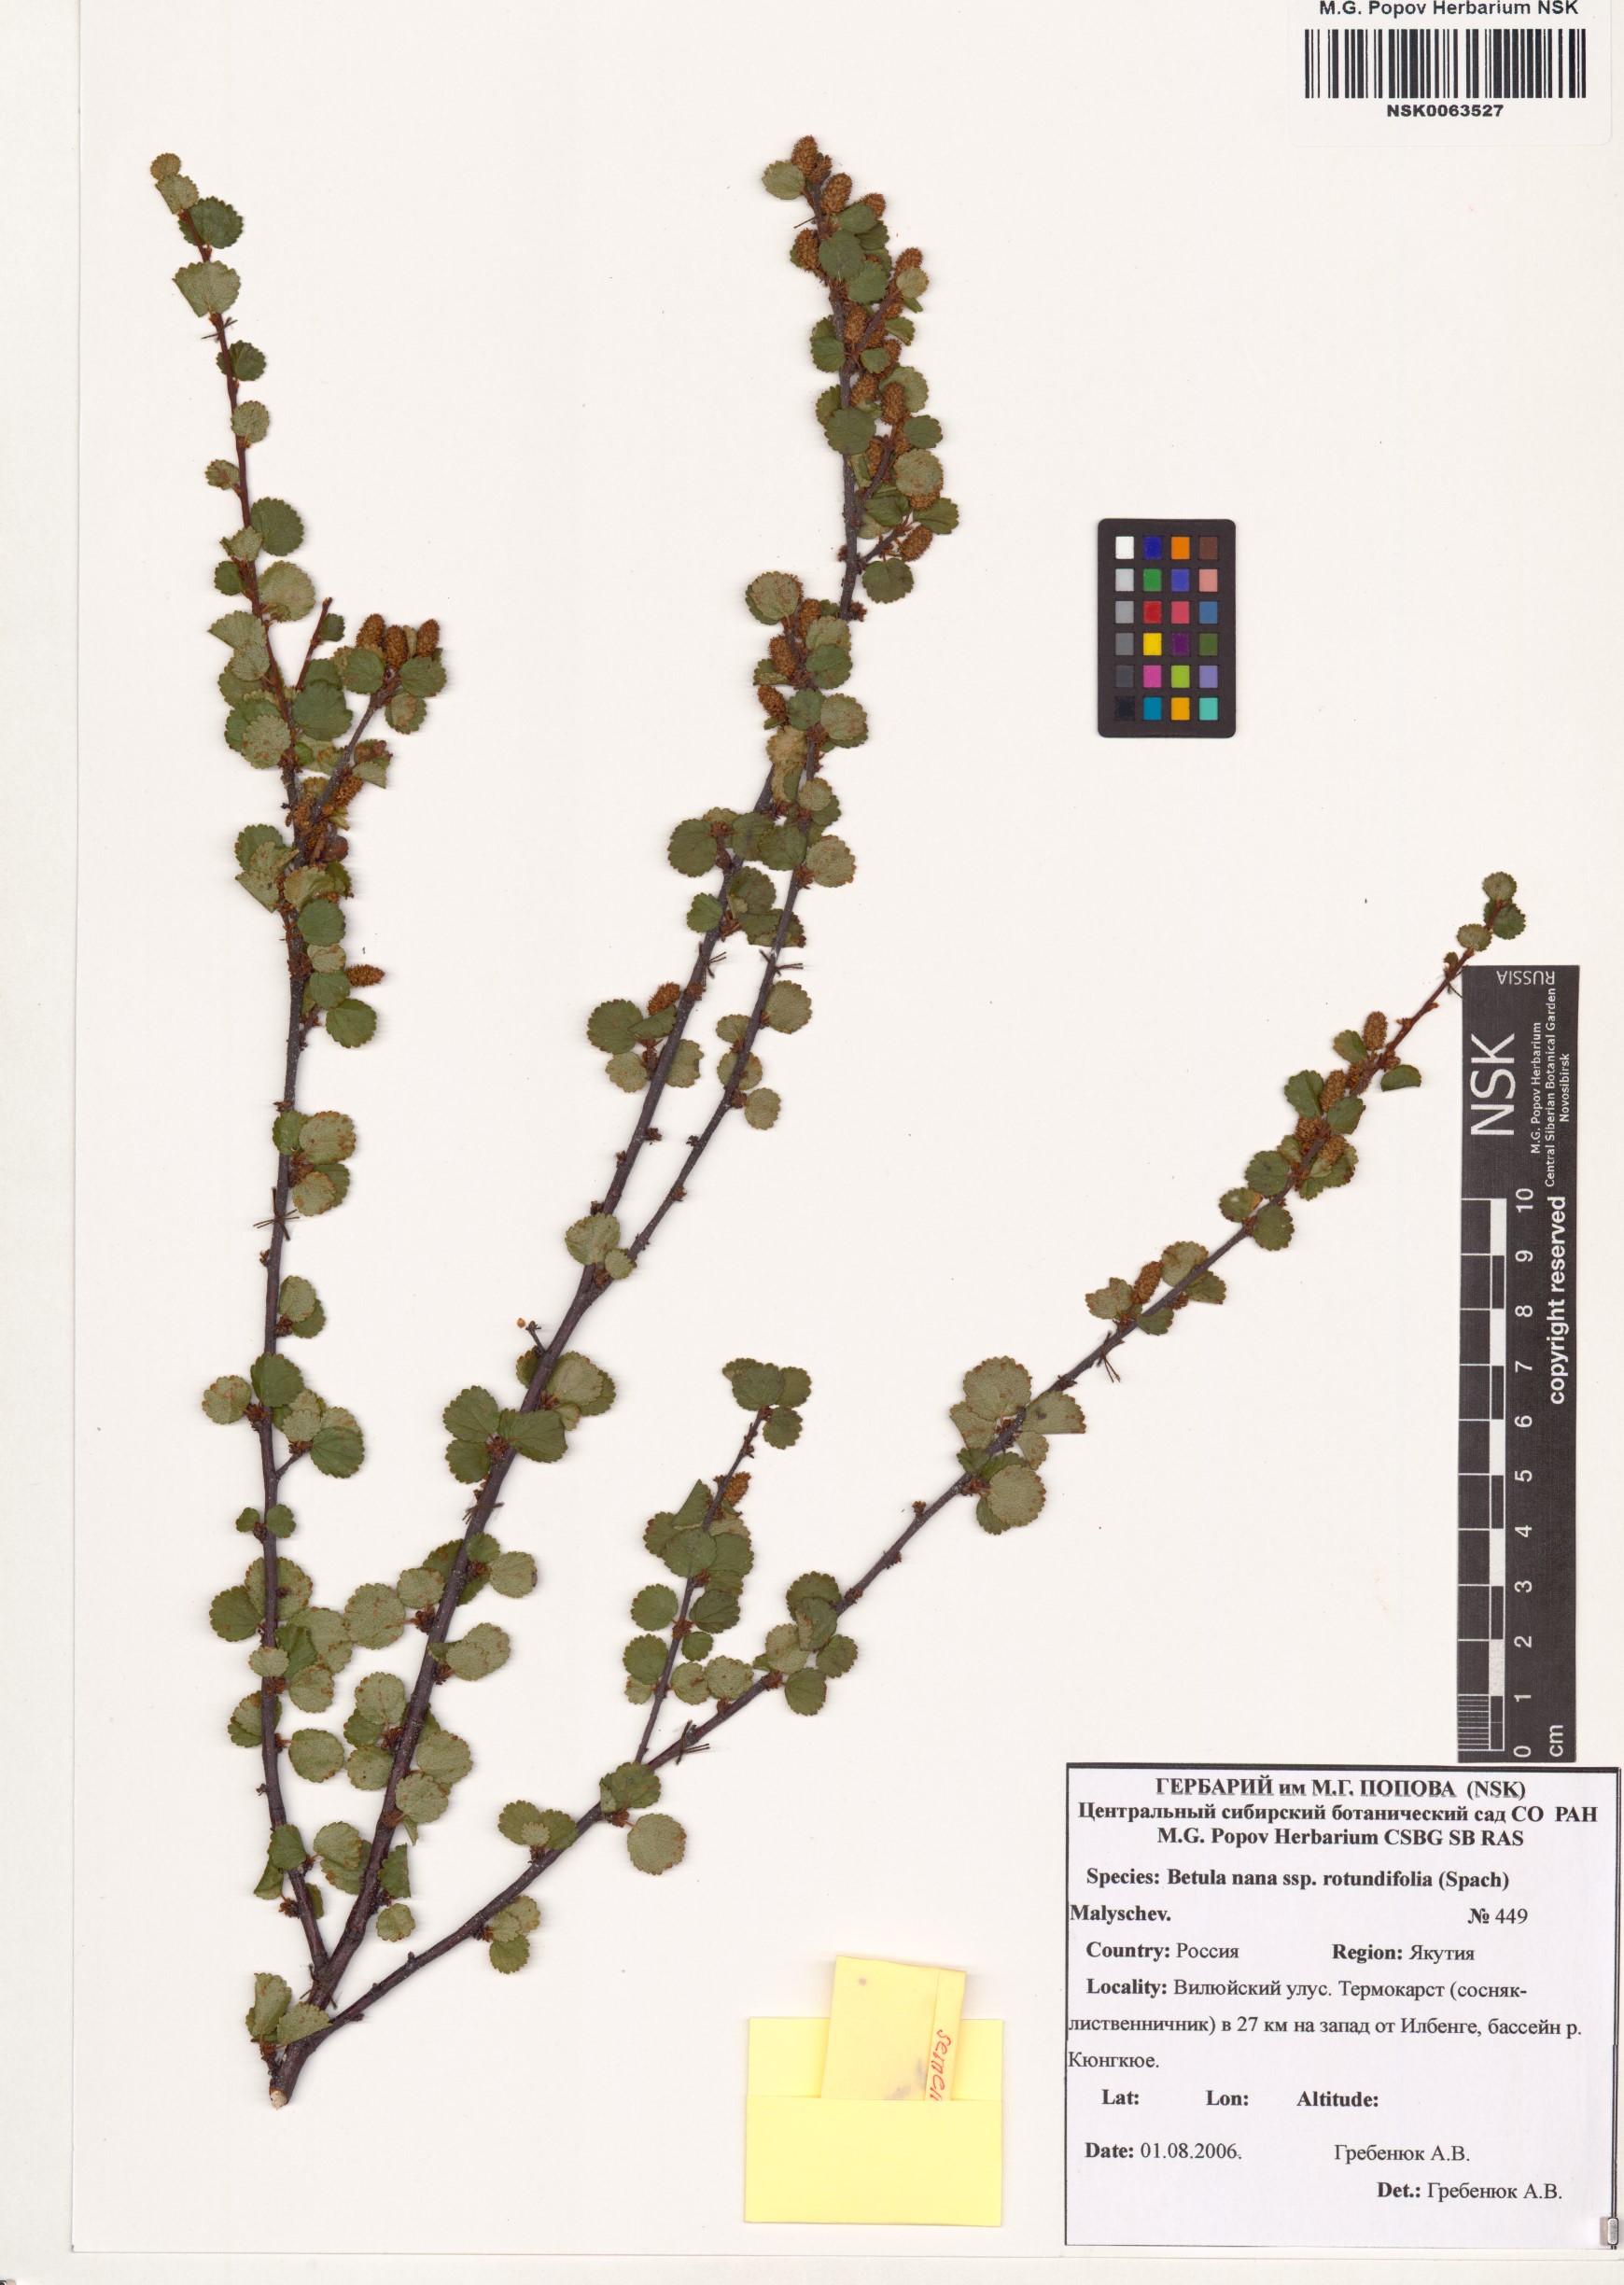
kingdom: Plantae
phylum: Tracheophyta
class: Magnoliopsida
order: Fagales
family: Betulaceae
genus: Betula
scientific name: Betula glandulosa
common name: Dwarf birch
